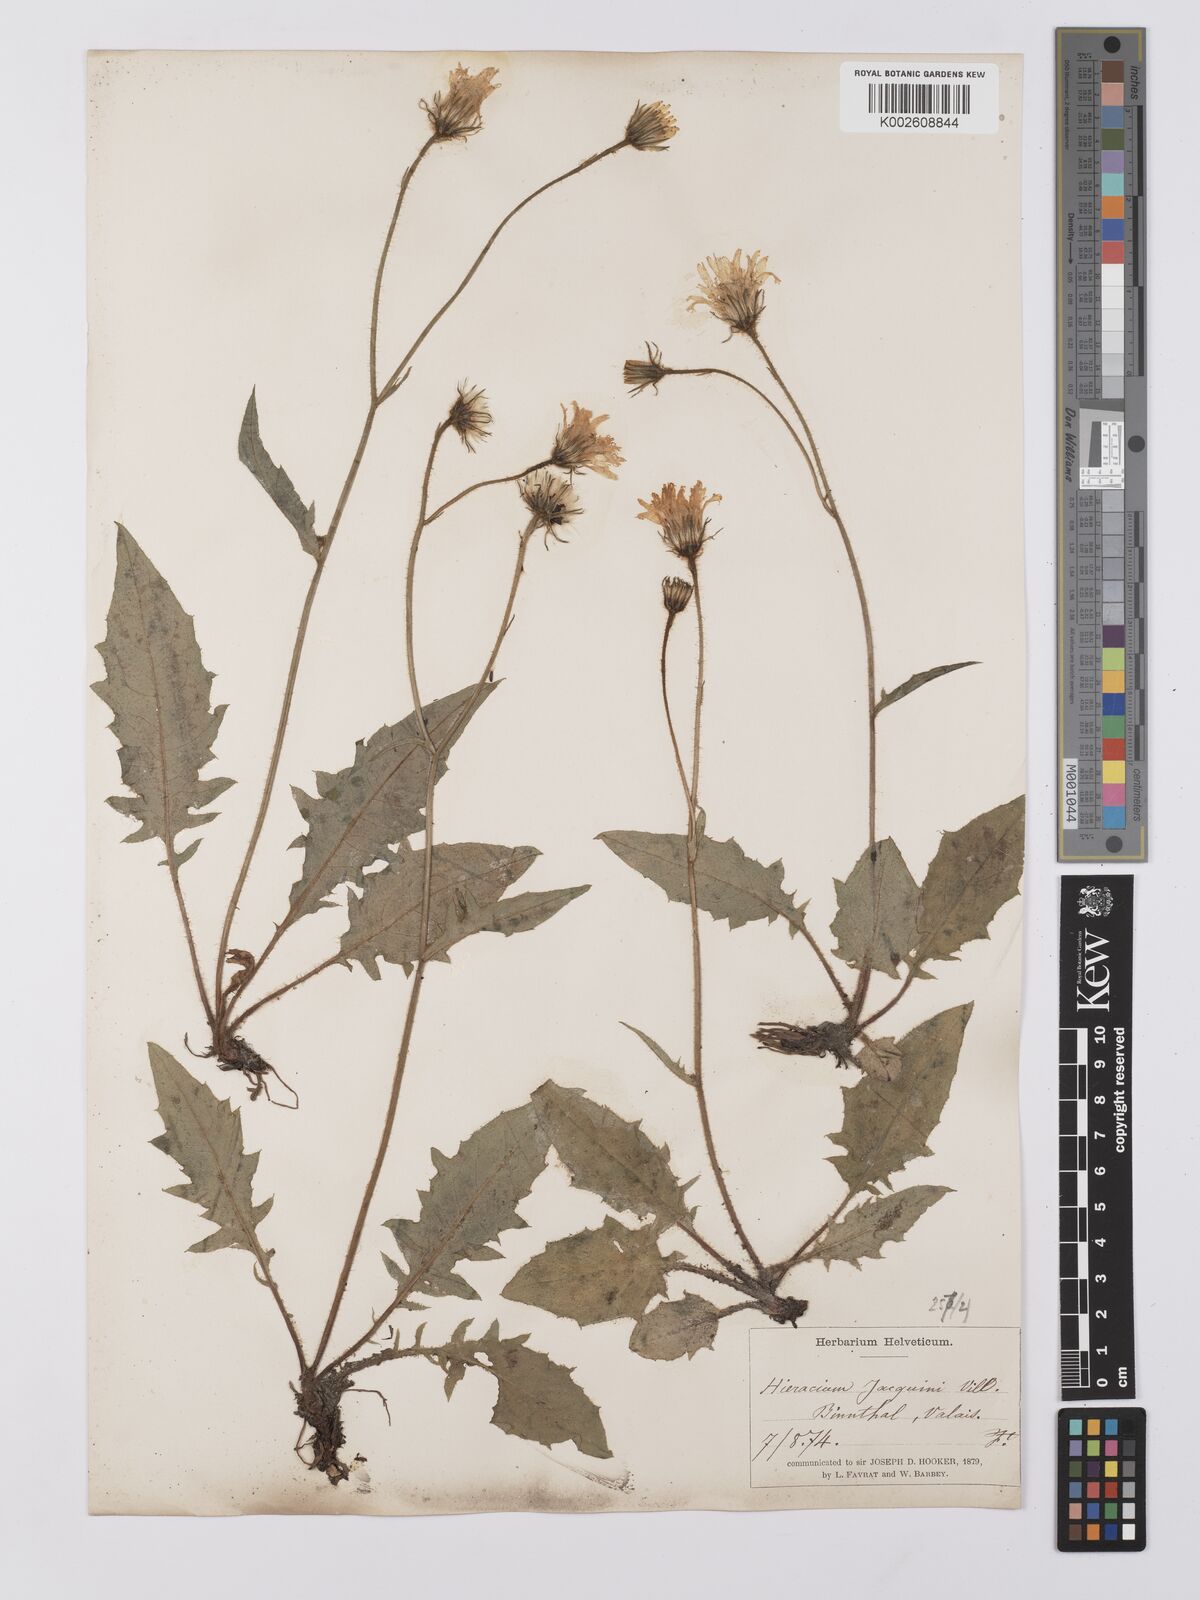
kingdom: Plantae
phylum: Tracheophyta
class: Magnoliopsida
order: Asterales
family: Asteraceae
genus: Hieracium
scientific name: Hieracium balbisianum
